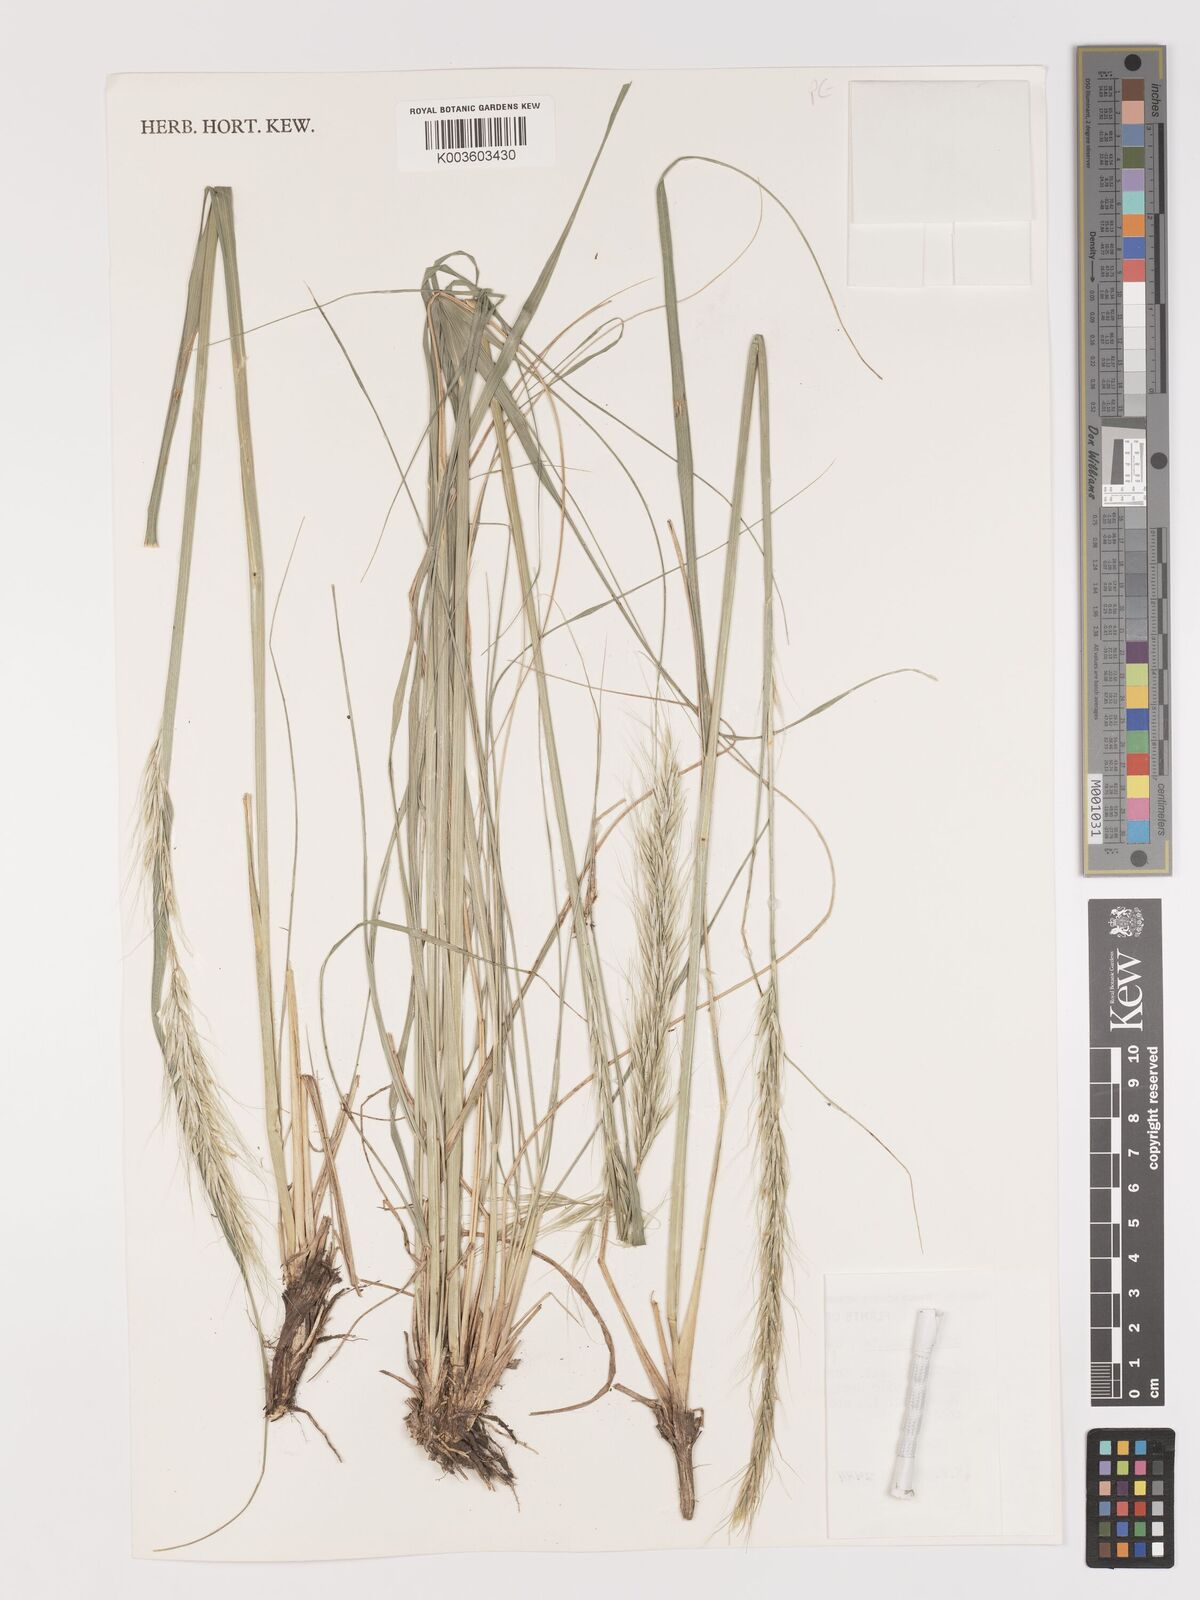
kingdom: Plantae
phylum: Tracheophyta
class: Liliopsida
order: Poales
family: Poaceae
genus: Eriocoma
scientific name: Eriocoma robusta
